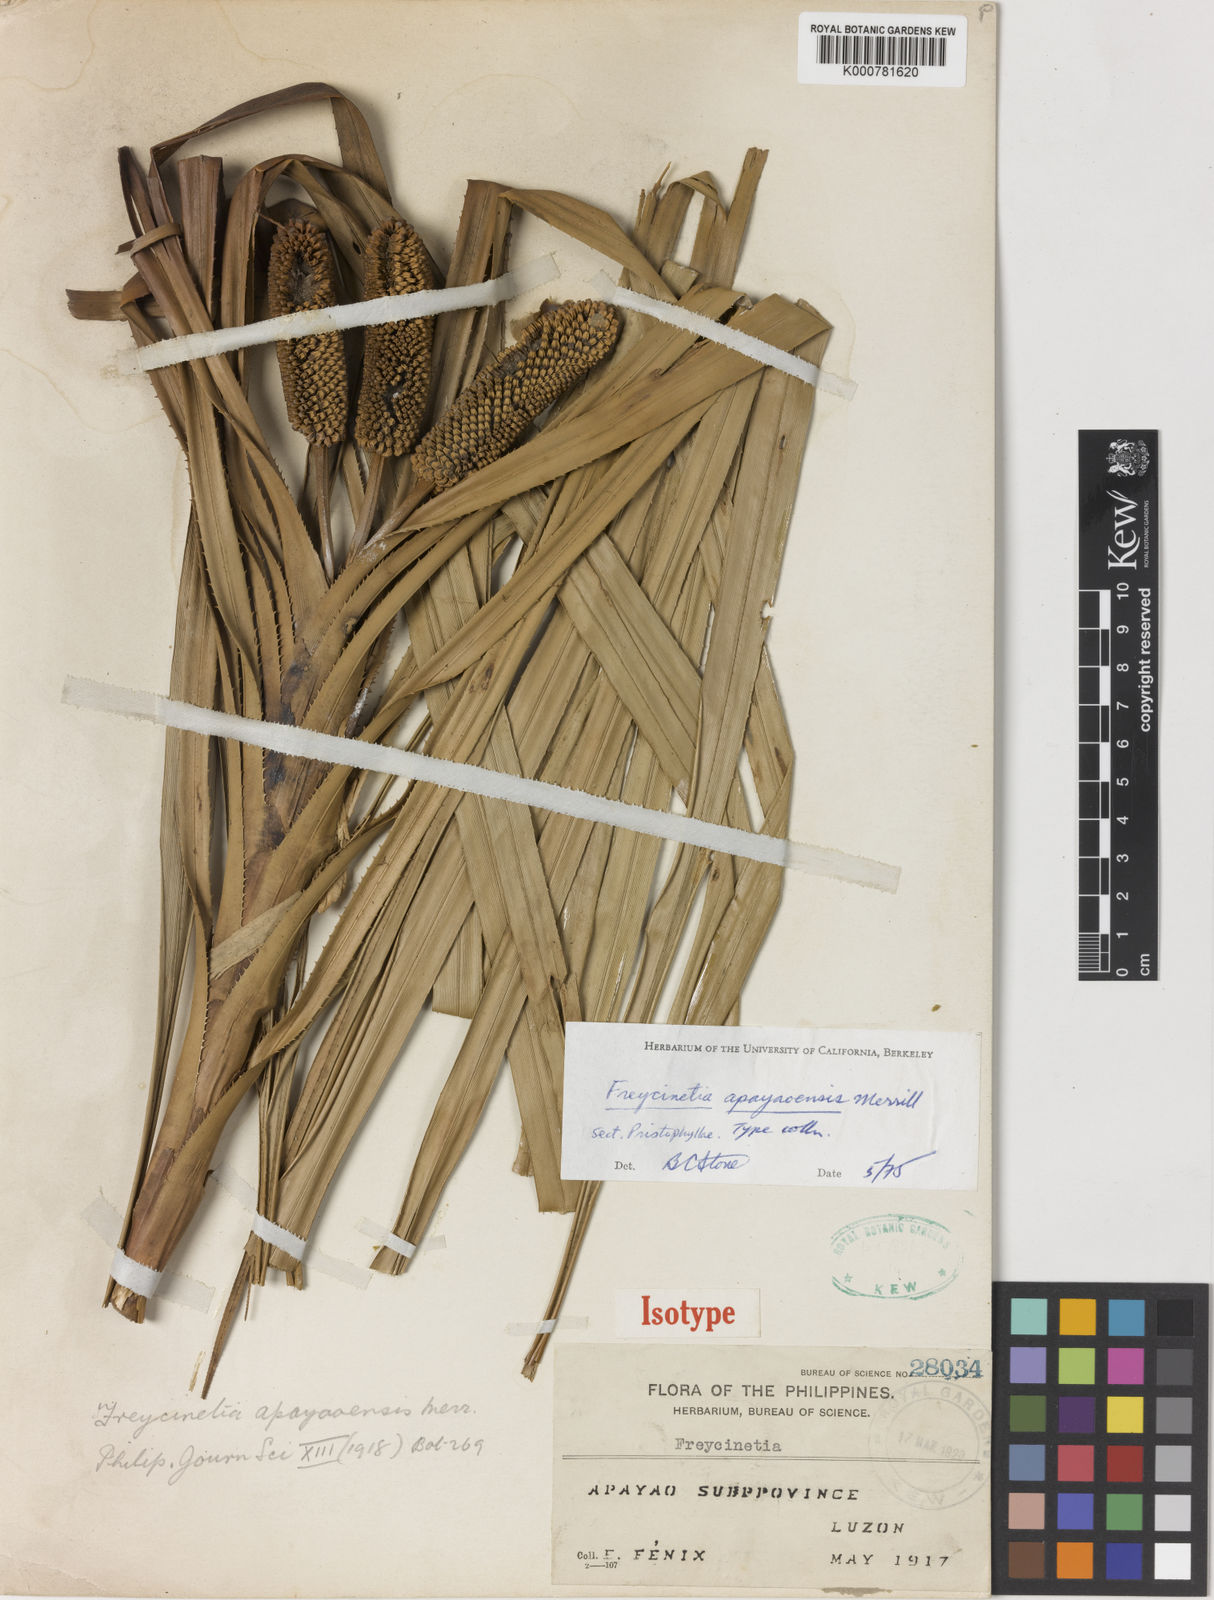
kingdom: Plantae
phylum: Tracheophyta
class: Liliopsida
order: Pandanales
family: Pandanaceae
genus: Freycinetia
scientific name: Freycinetia
